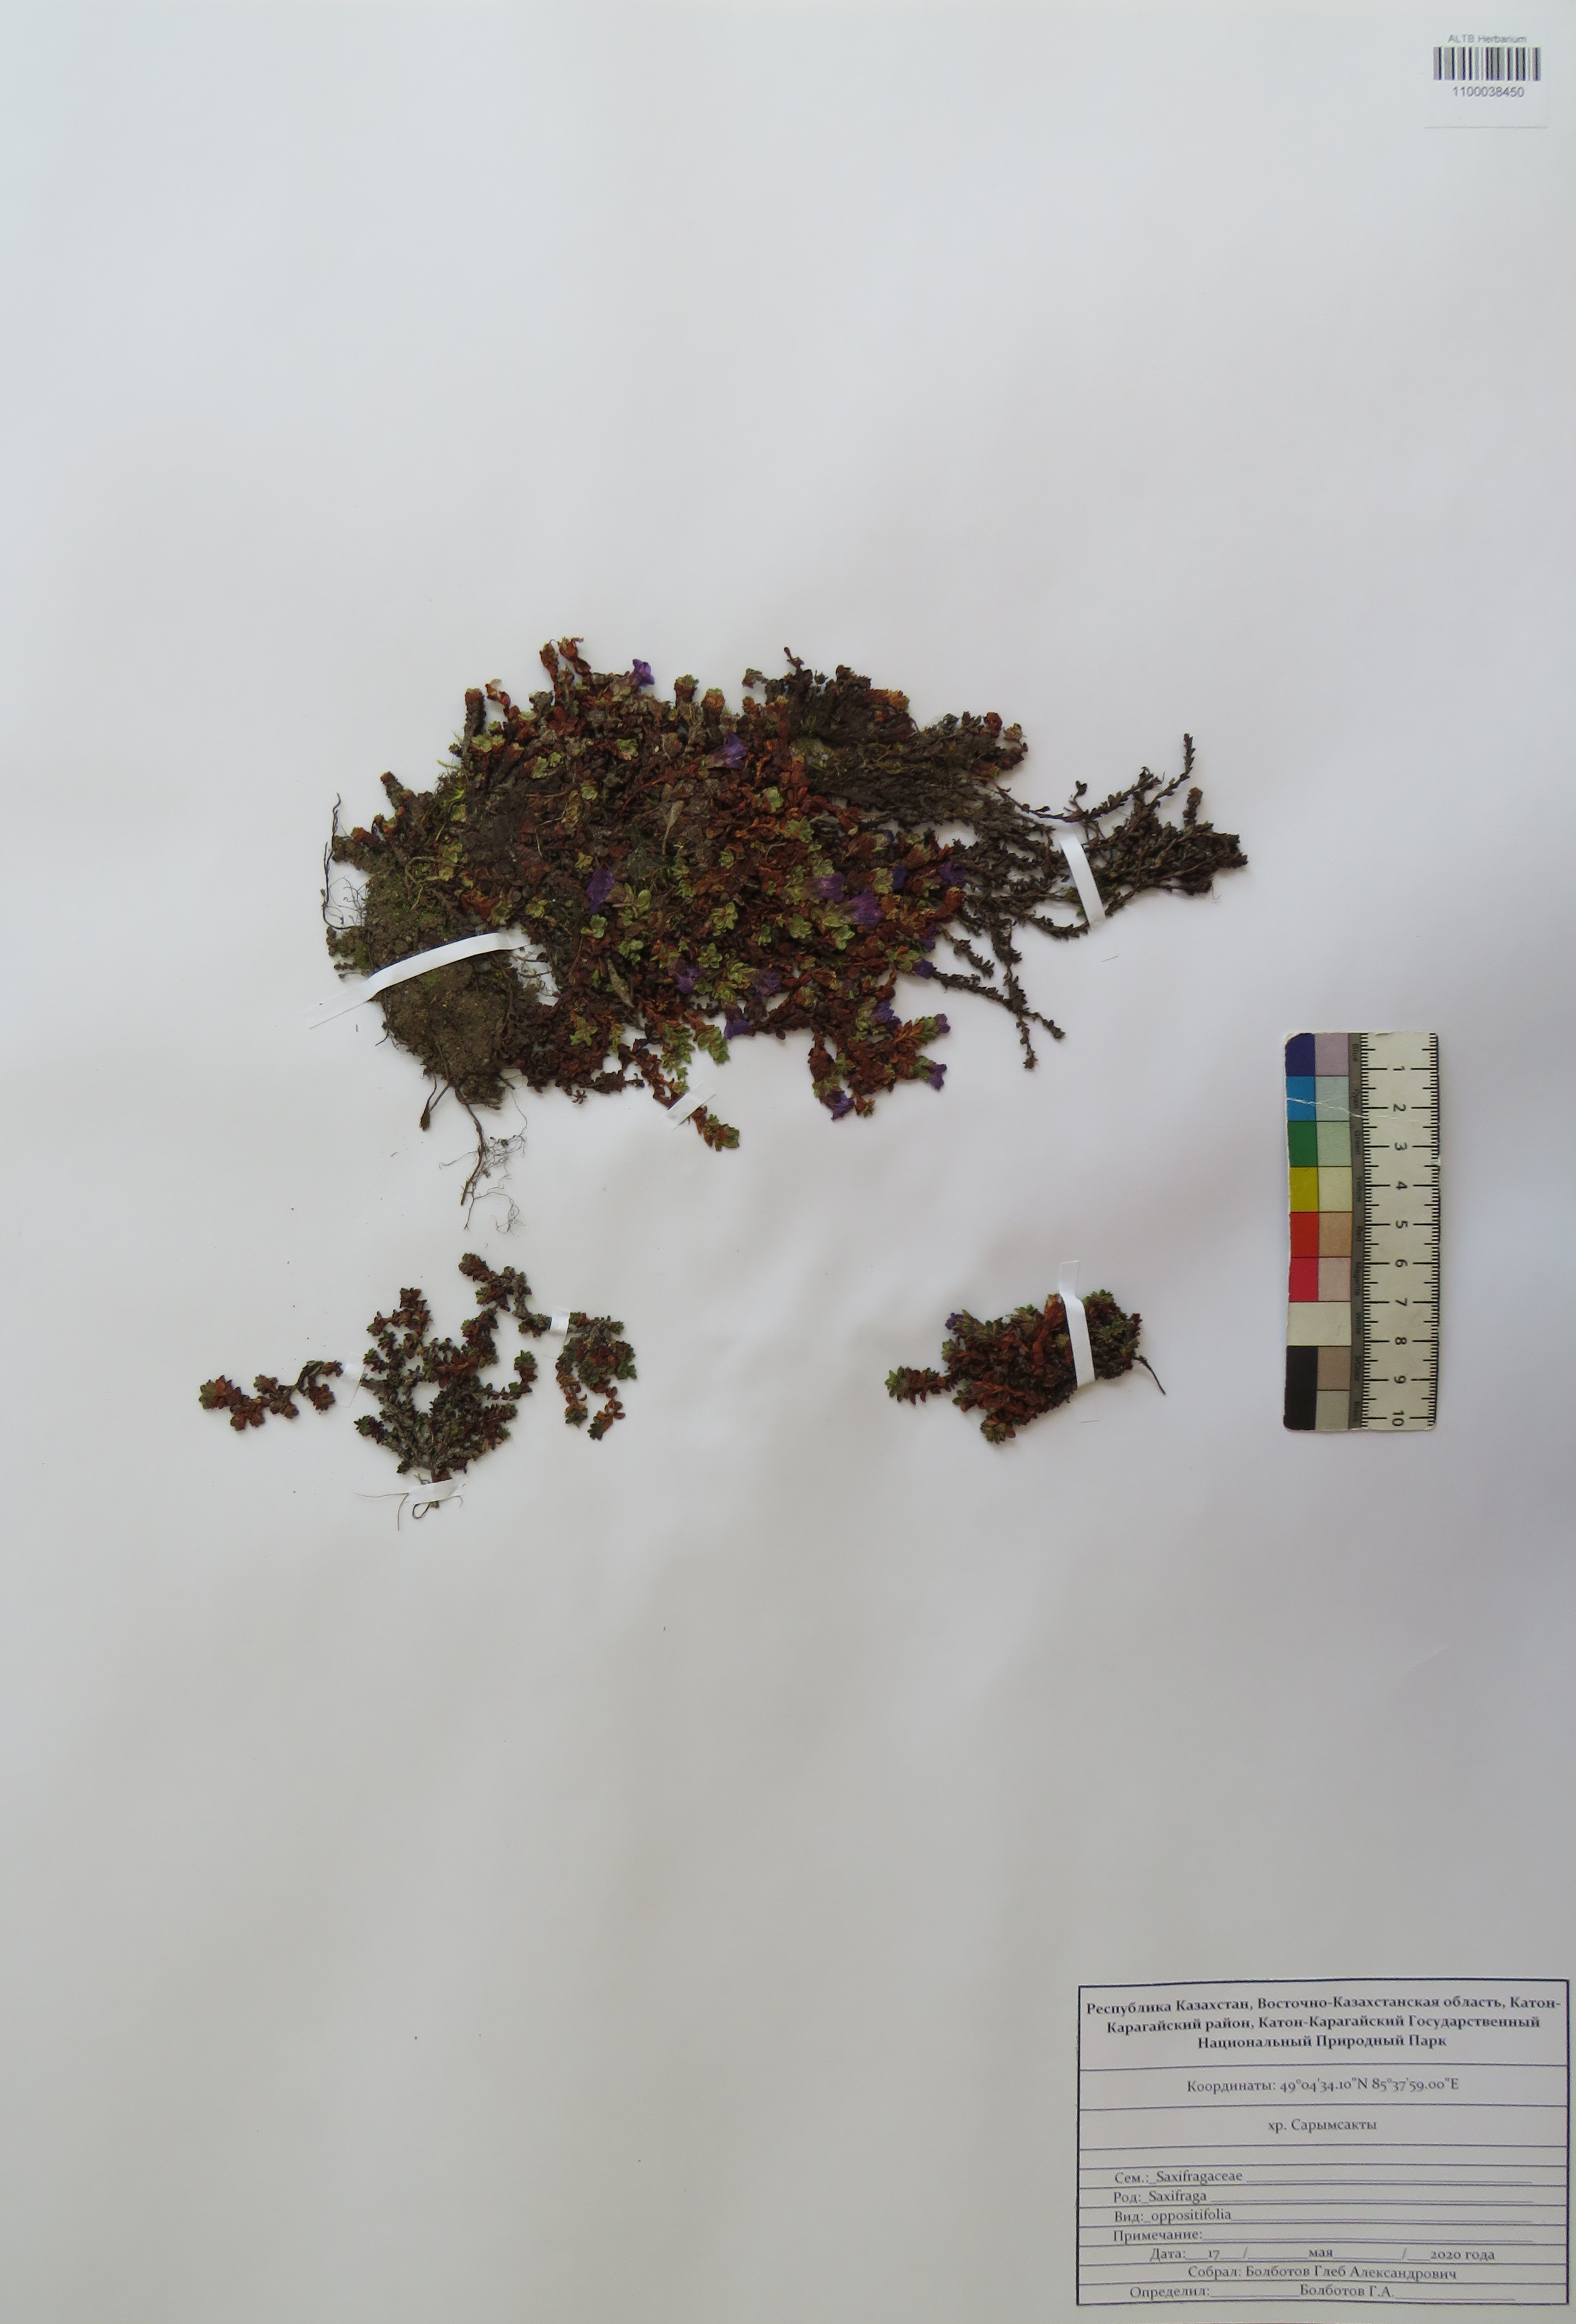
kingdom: Plantae
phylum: Tracheophyta
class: Magnoliopsida
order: Saxifragales
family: Saxifragaceae
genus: Saxifraga
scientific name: Saxifraga oppositifolia
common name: Purple saxifrage
